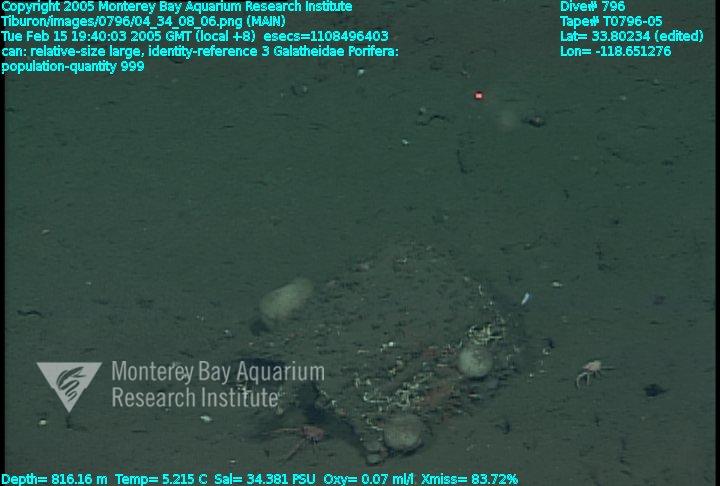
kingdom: Animalia
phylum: Porifera
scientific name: Porifera
